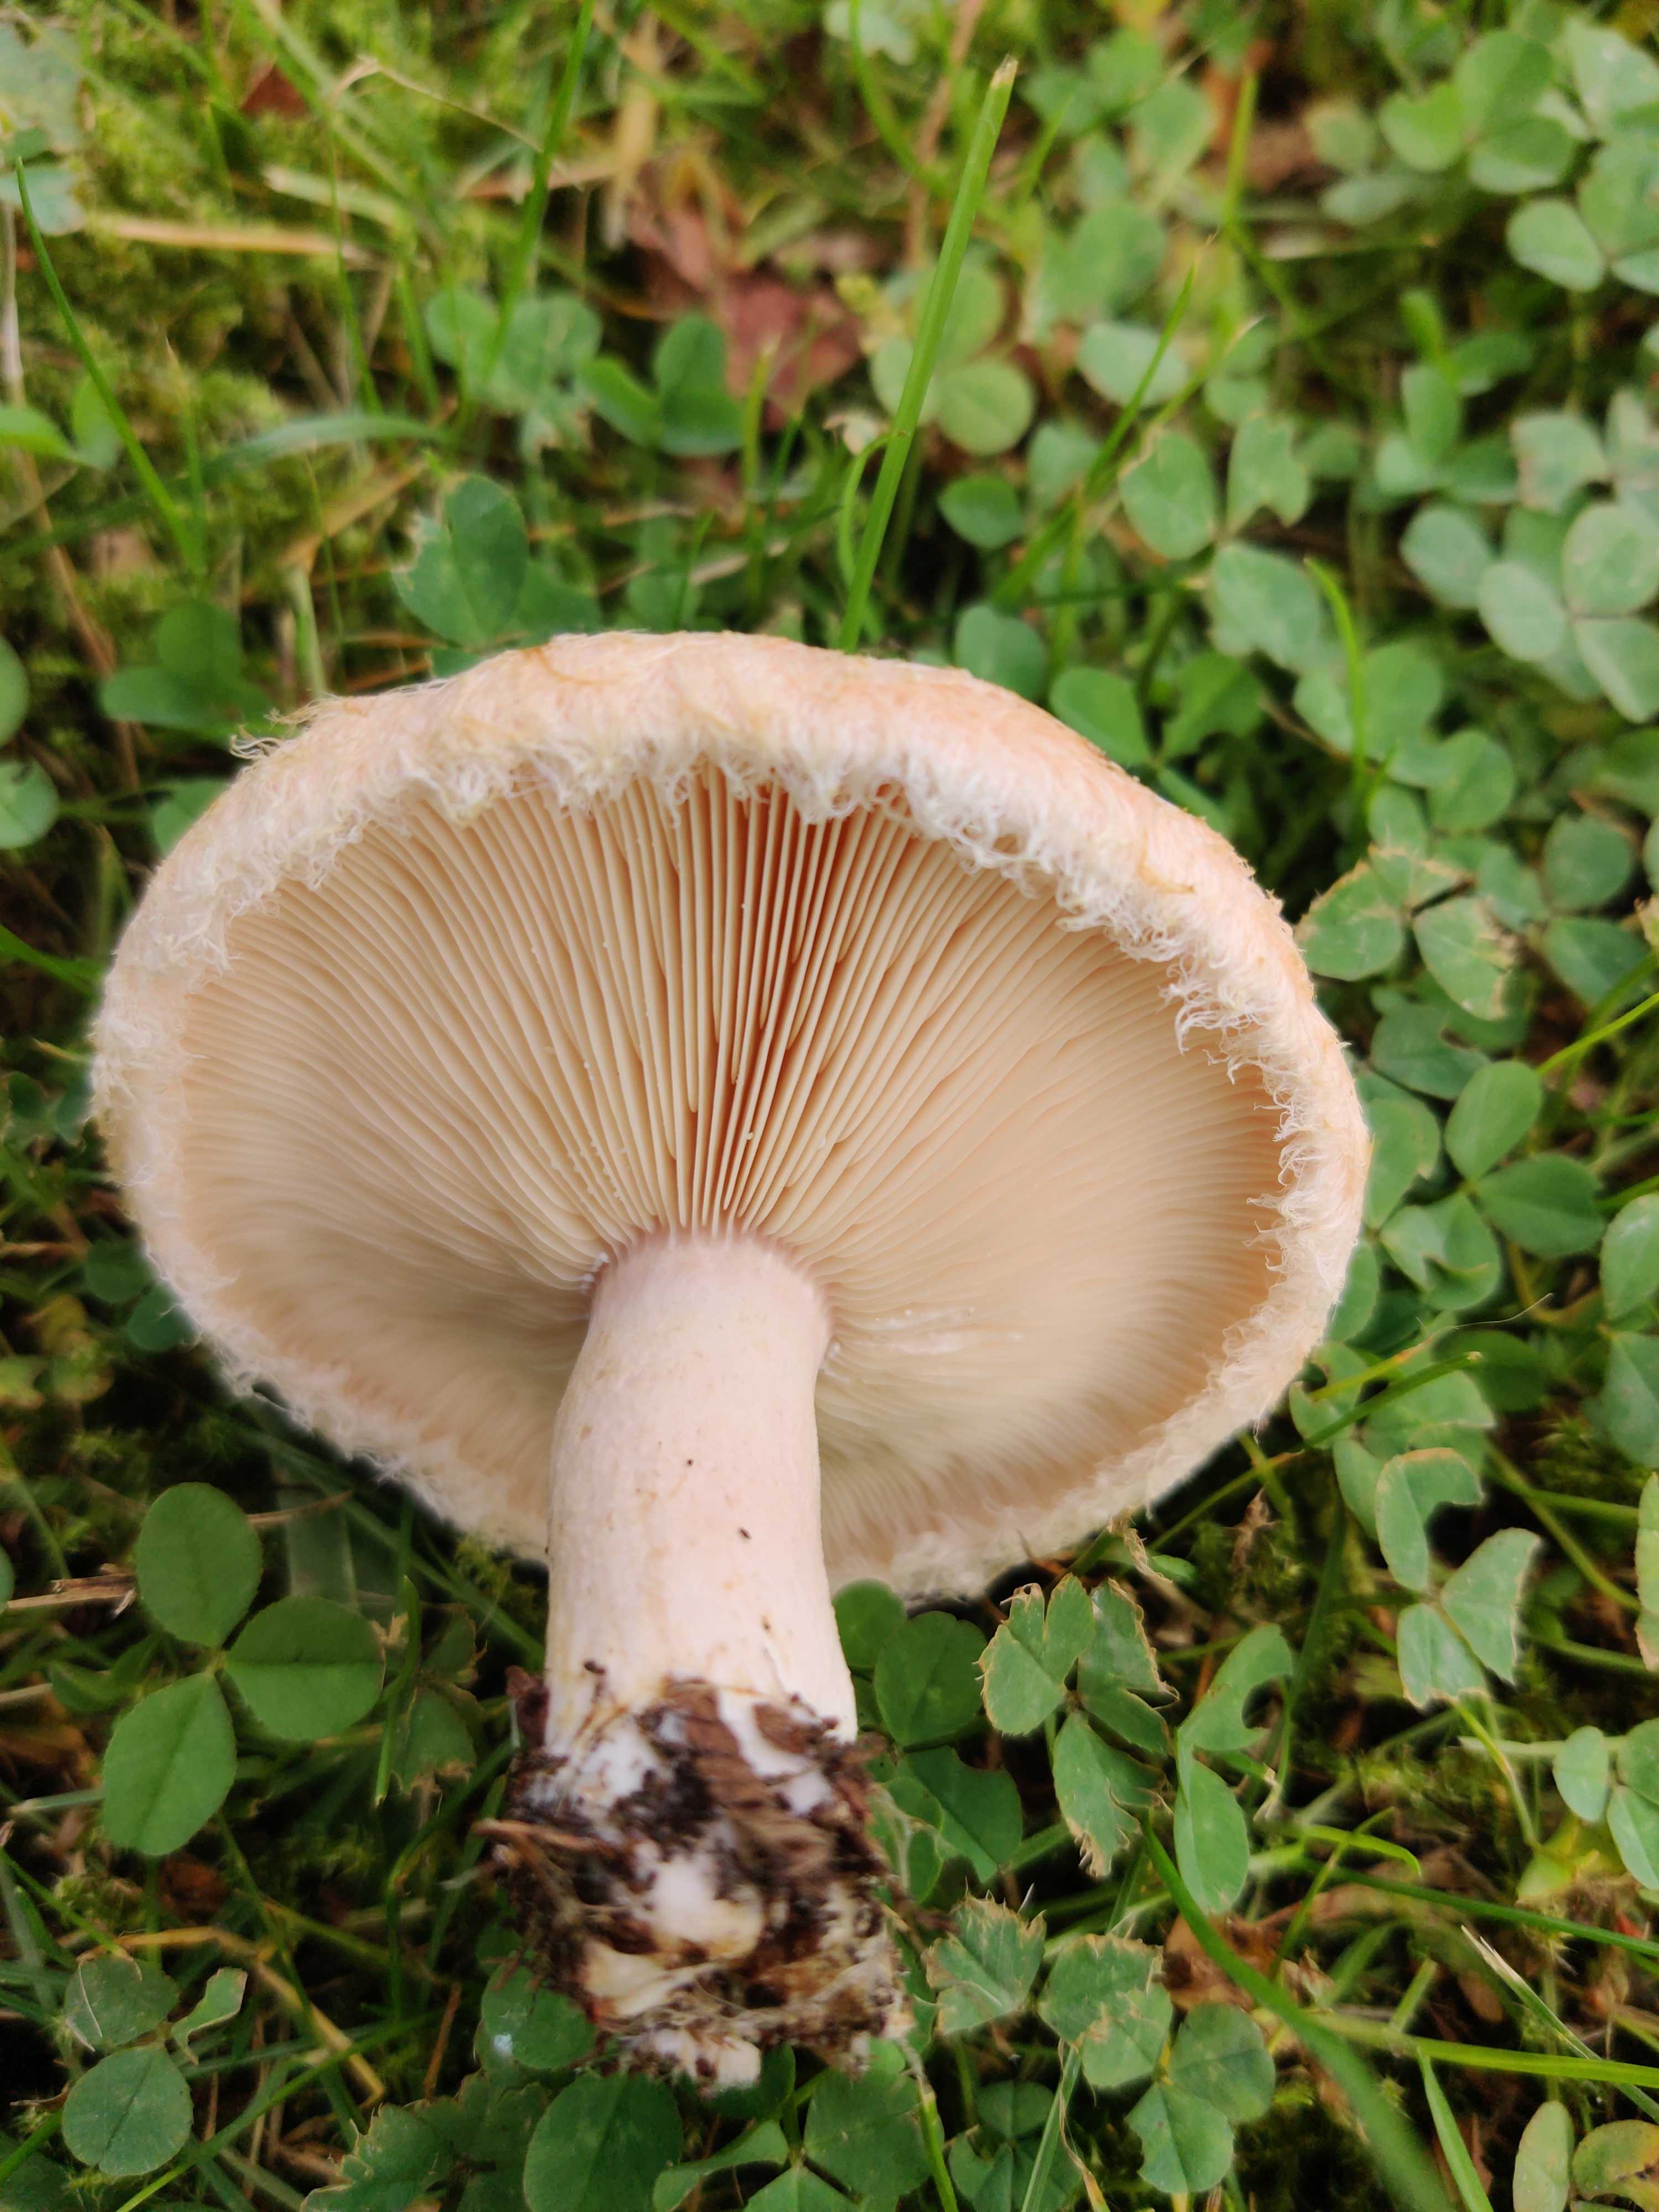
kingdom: Fungi
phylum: Basidiomycota
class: Agaricomycetes
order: Russulales
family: Russulaceae
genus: Lactarius
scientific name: Lactarius torminosus
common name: skægget mælkehat
